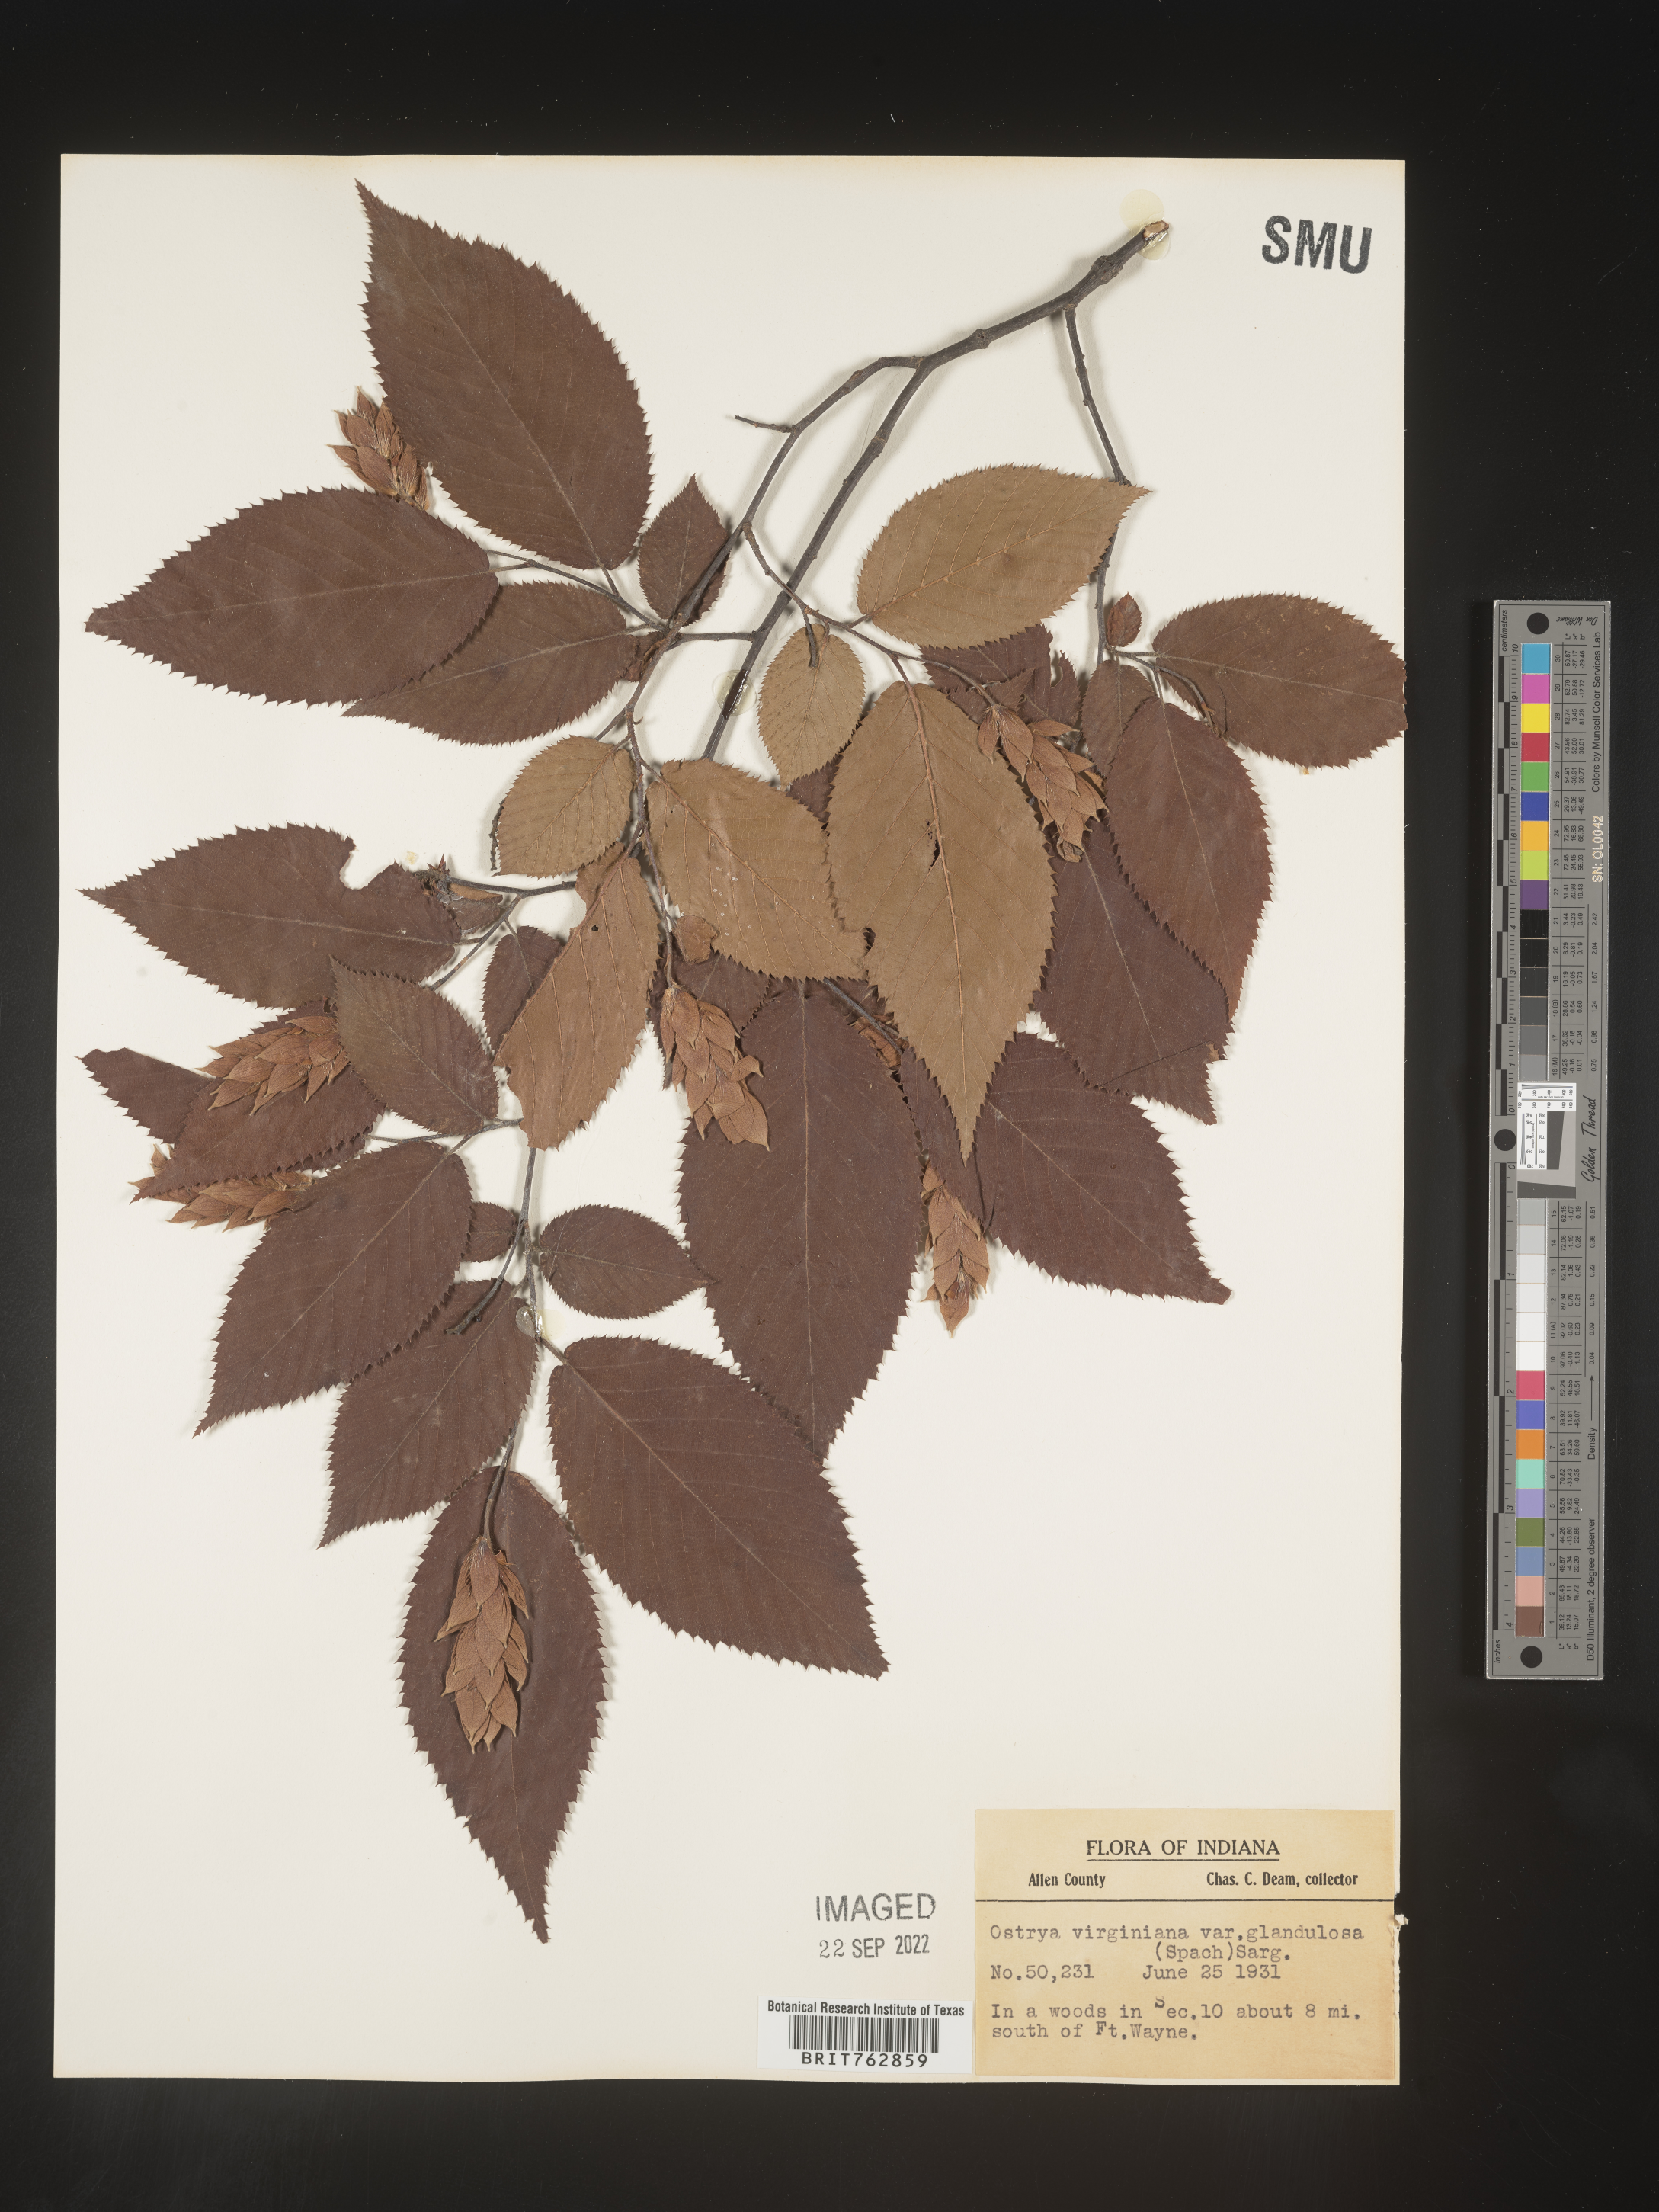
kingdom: Plantae
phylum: Tracheophyta
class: Magnoliopsida
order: Fagales
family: Betulaceae
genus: Ostrya
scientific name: Ostrya virginiana
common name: Ironwood
